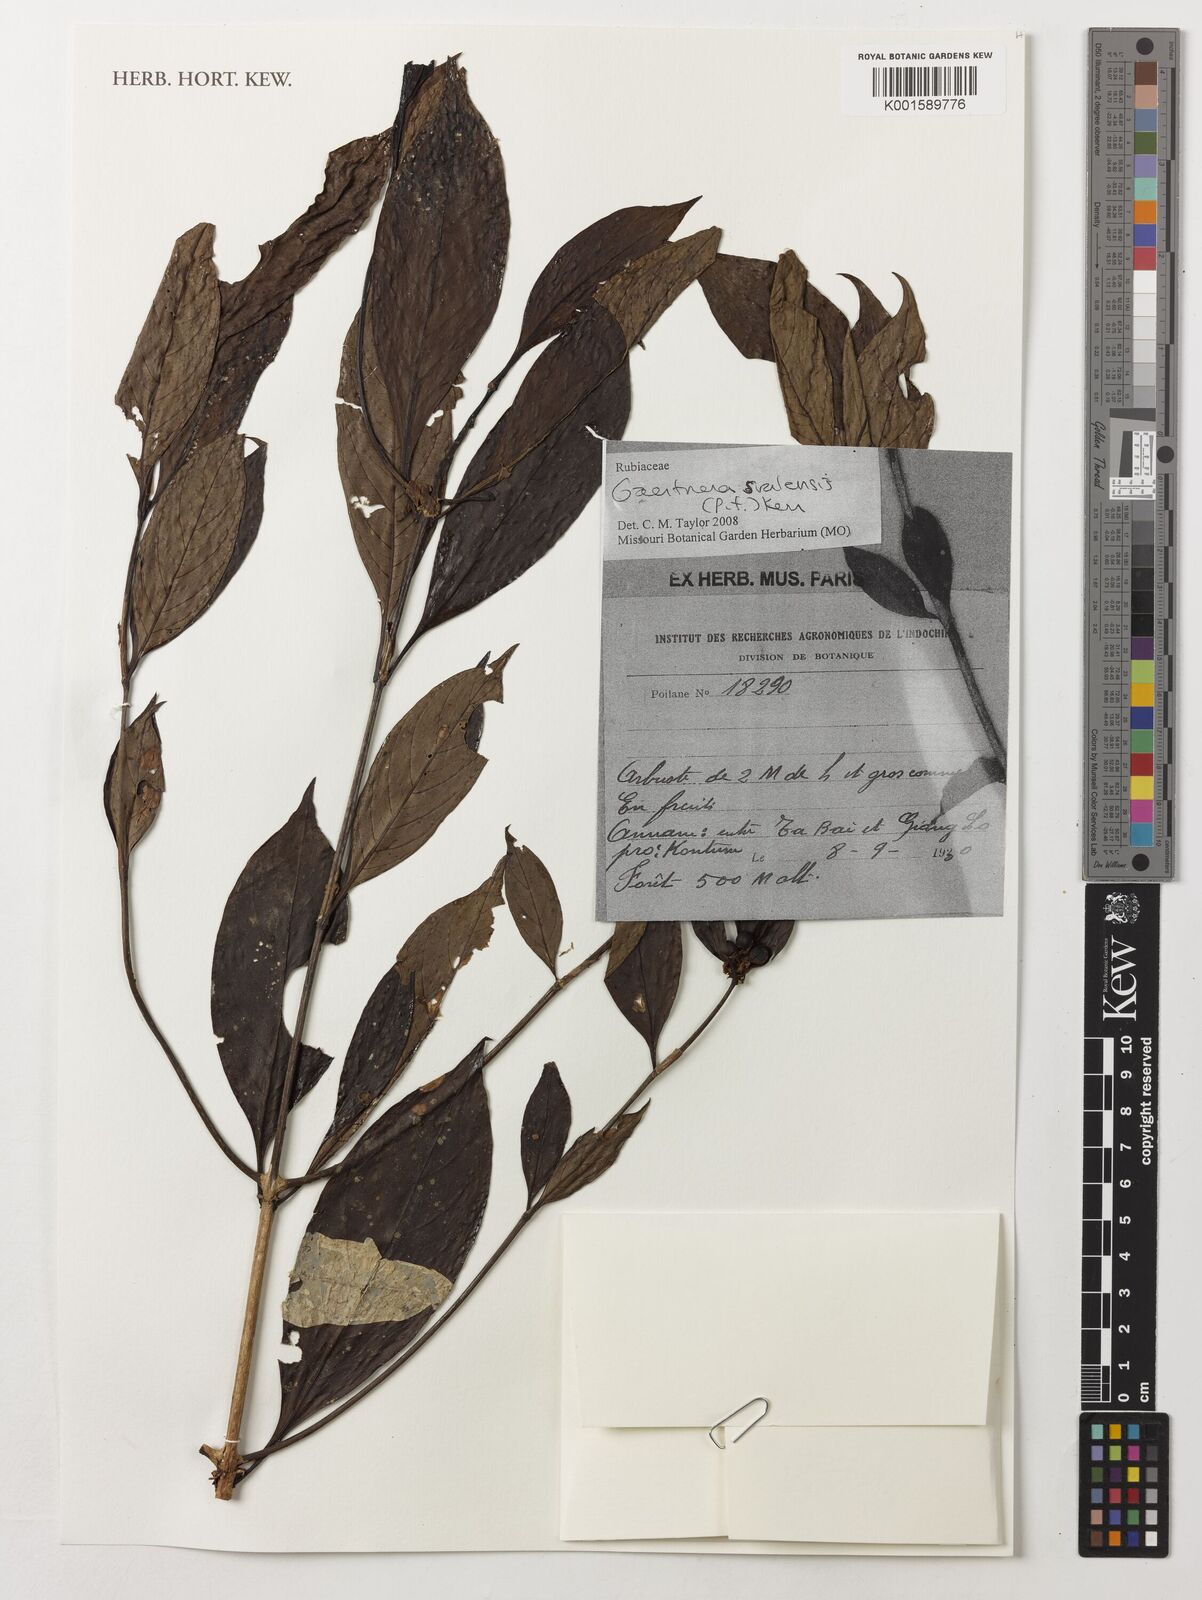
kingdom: Plantae
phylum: Tracheophyta
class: Magnoliopsida
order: Gentianales
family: Rubiaceae
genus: Gaertnera
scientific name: Gaertnera sralensis
